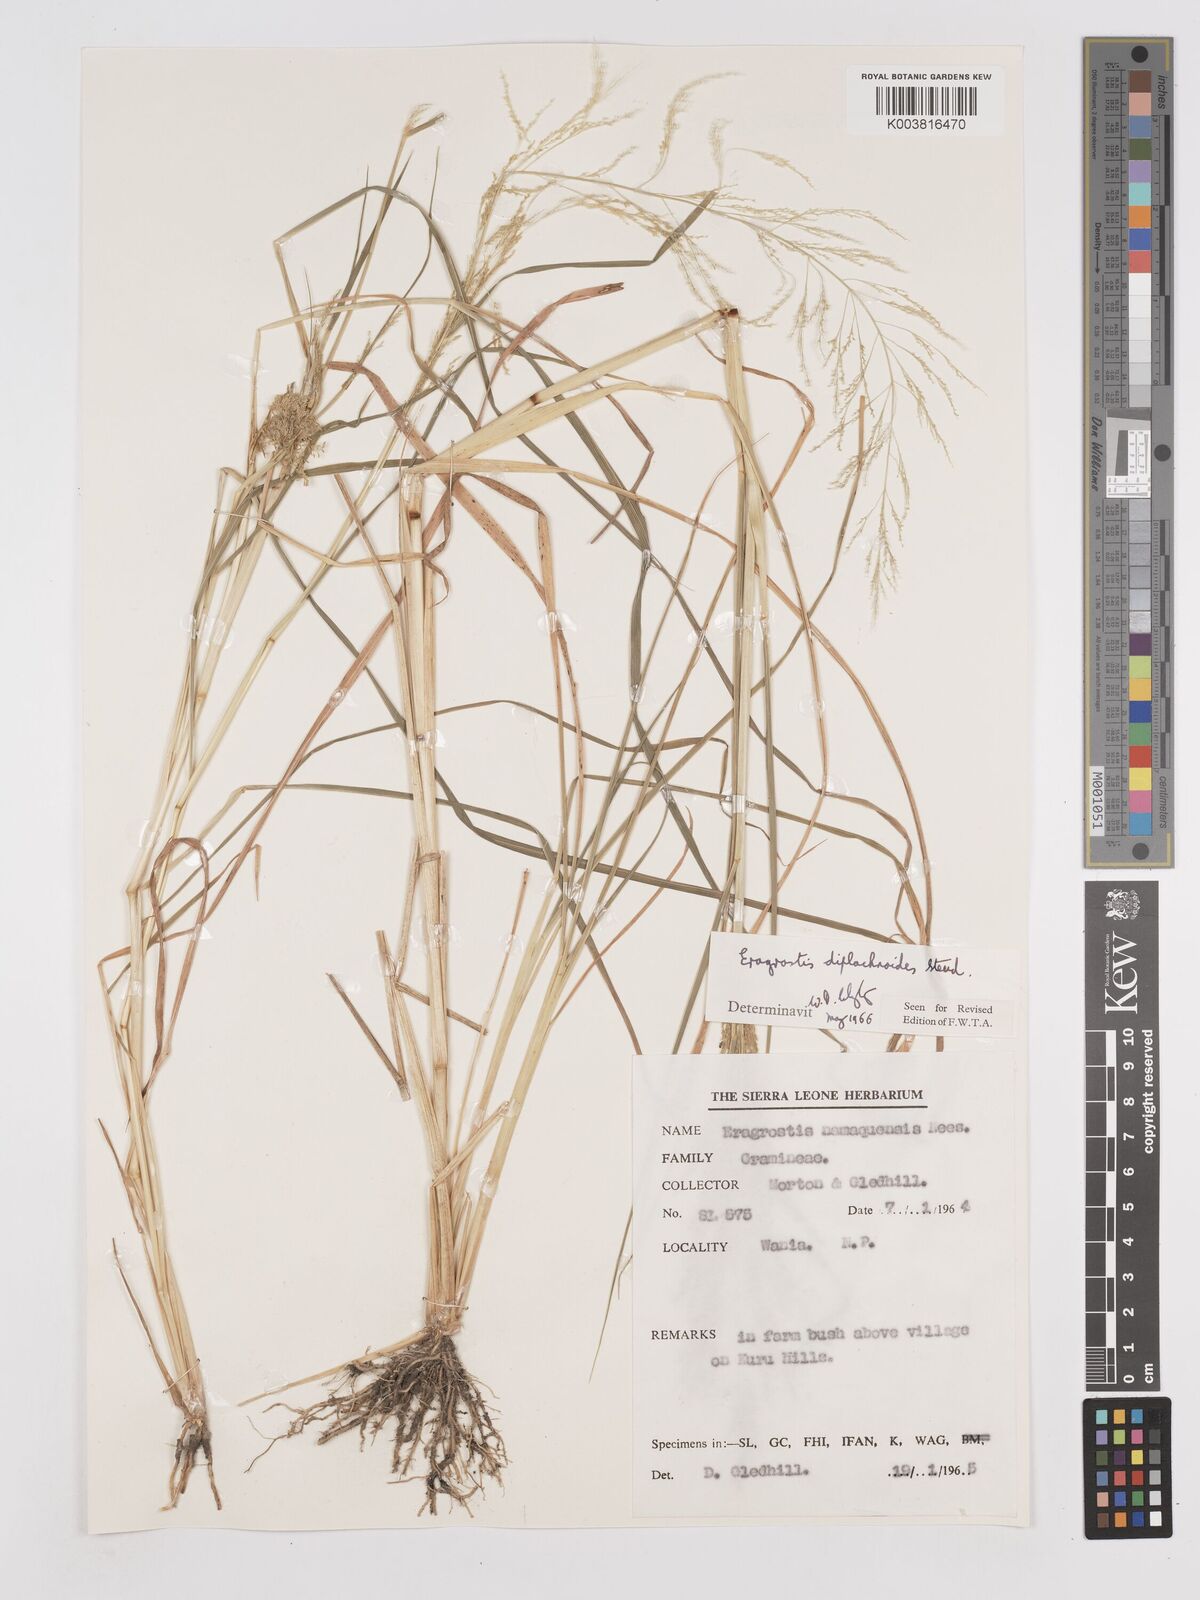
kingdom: Plantae
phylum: Tracheophyta
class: Liliopsida
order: Poales
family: Poaceae
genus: Eragrostis
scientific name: Eragrostis japonica
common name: Pond lovegrass
